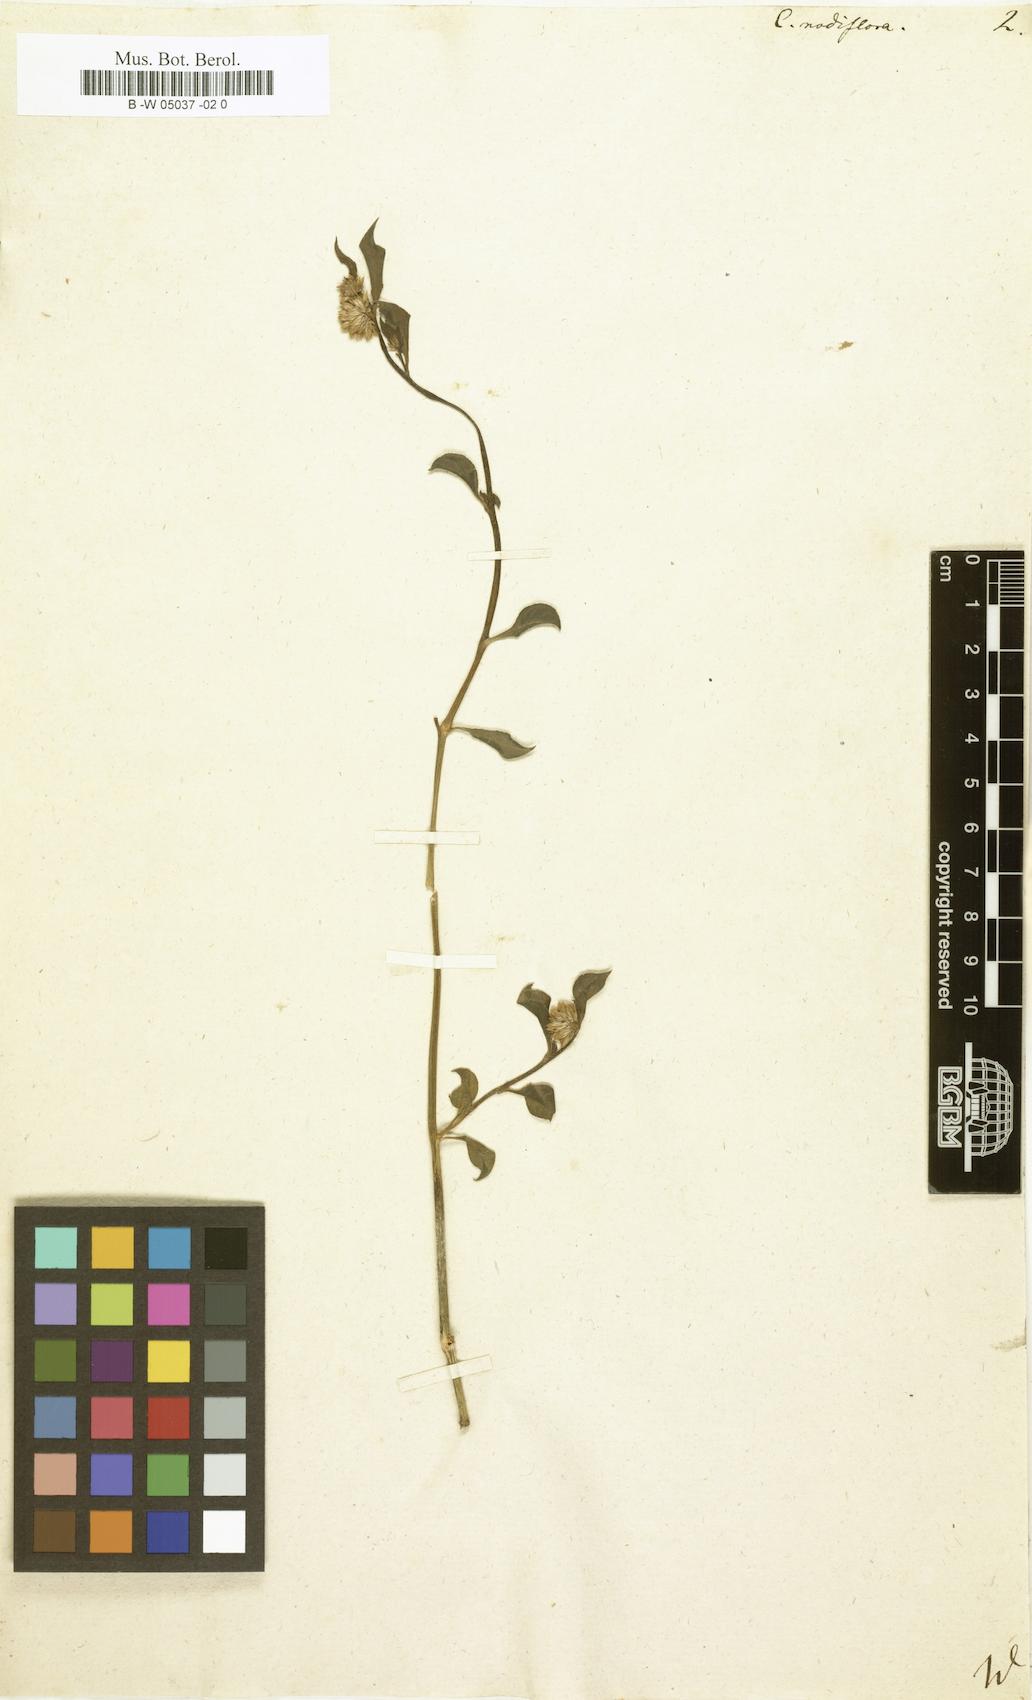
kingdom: Plantae
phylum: Tracheophyta
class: Magnoliopsida
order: Caryophyllales
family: Amaranthaceae
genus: Allmania
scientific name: Allmania nodiflora
